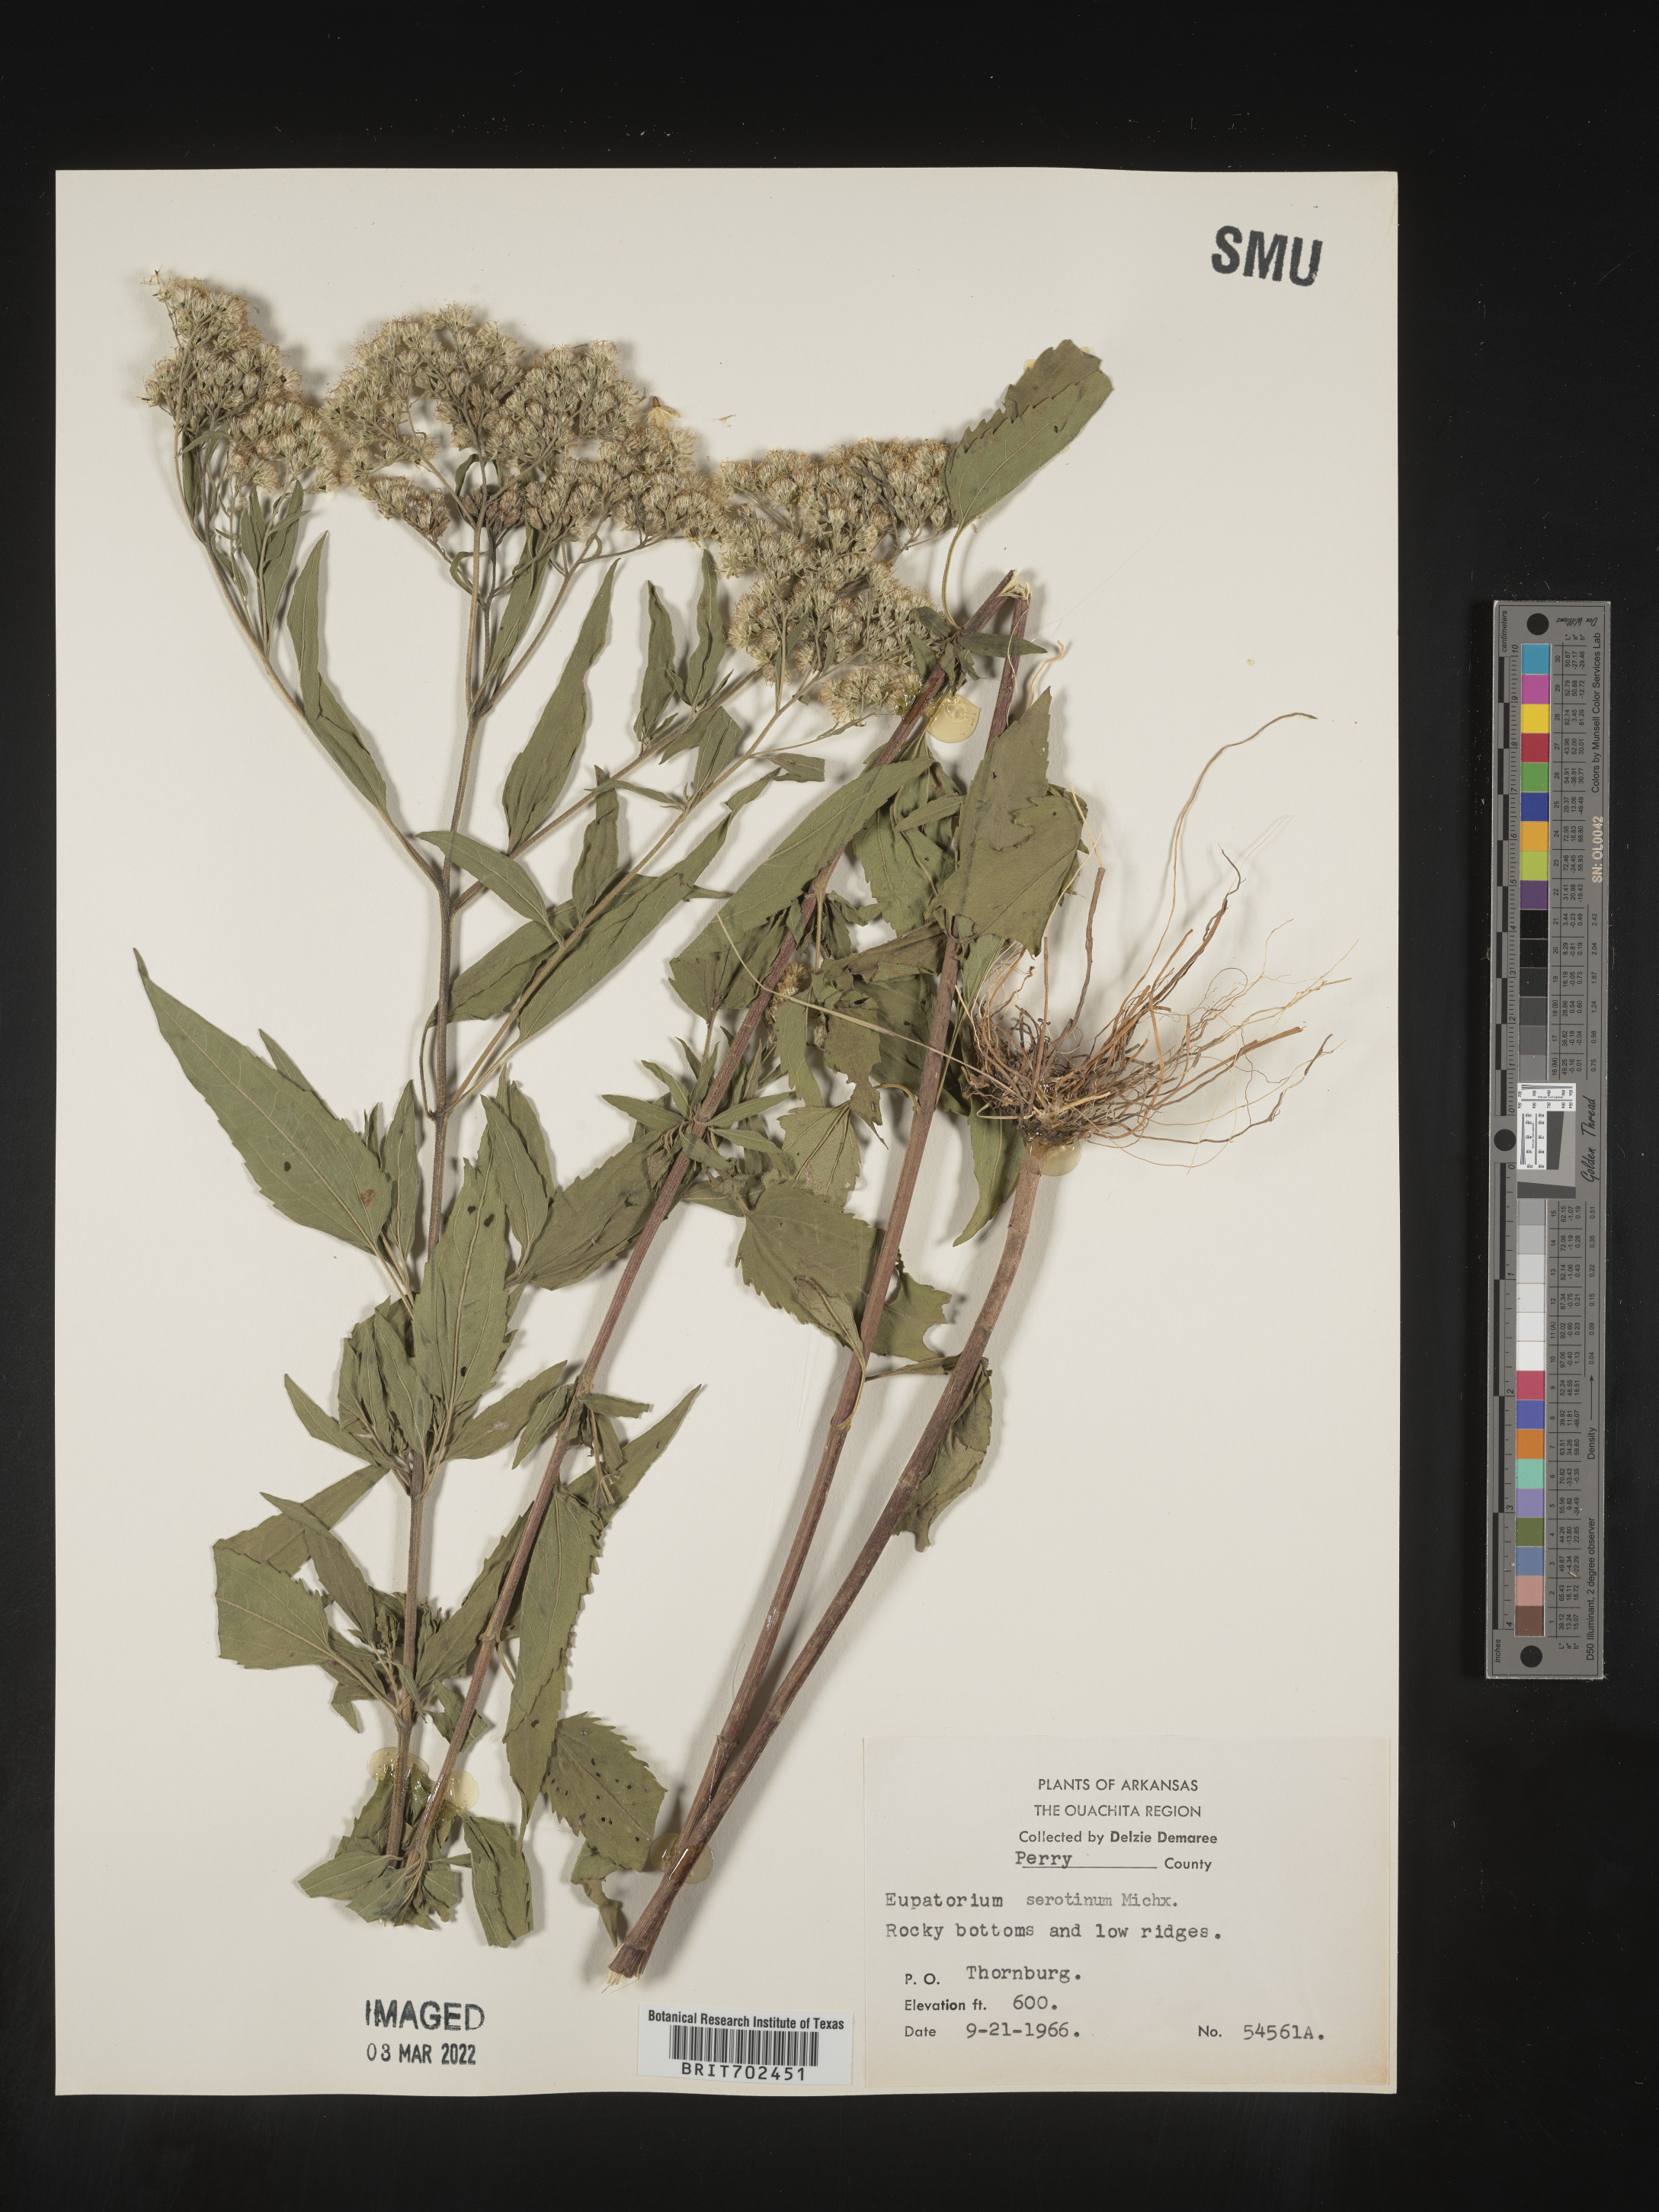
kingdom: Plantae
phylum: Tracheophyta
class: Magnoliopsida
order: Asterales
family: Asteraceae
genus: Eupatorium
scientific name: Eupatorium serotinum
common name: Late boneset
